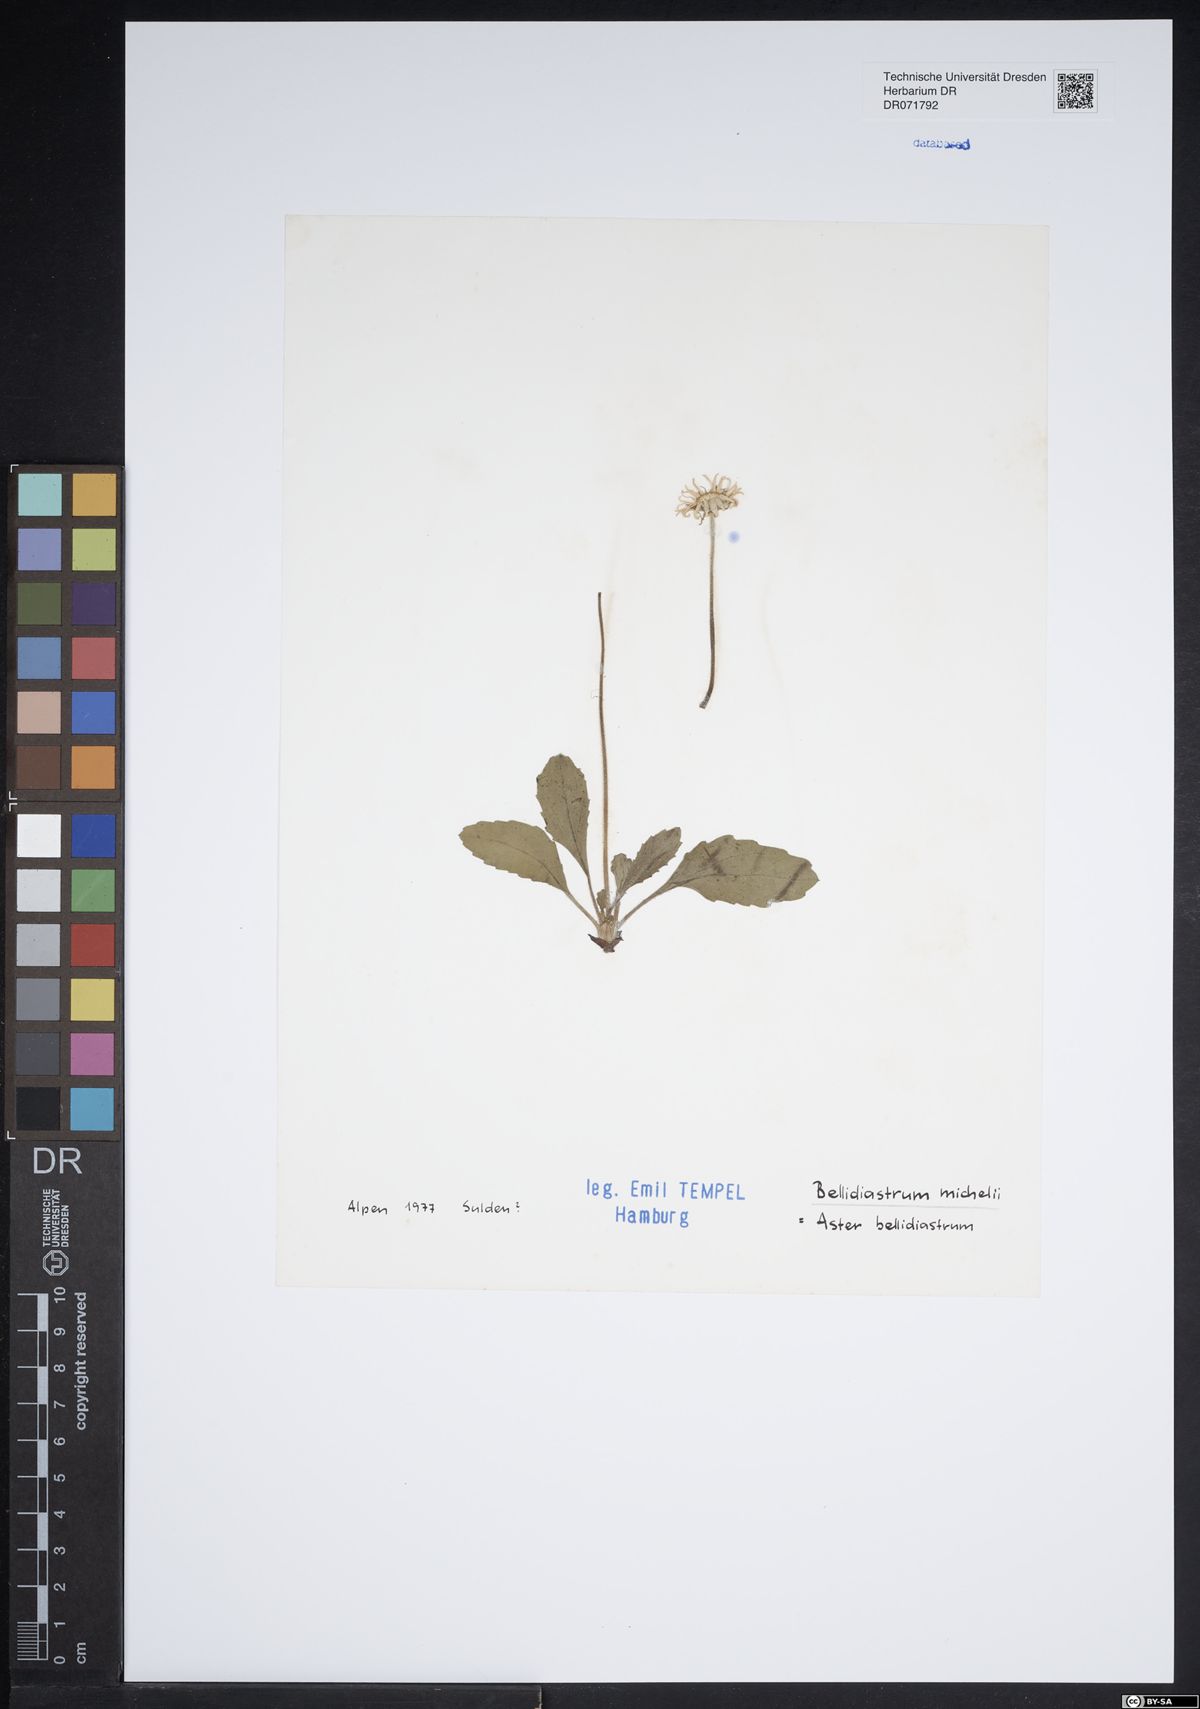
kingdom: Plantae
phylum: Tracheophyta
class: Magnoliopsida
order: Asterales
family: Asteraceae
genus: Bellidiastrum
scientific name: Bellidiastrum michelii
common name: Daisy-star aster
